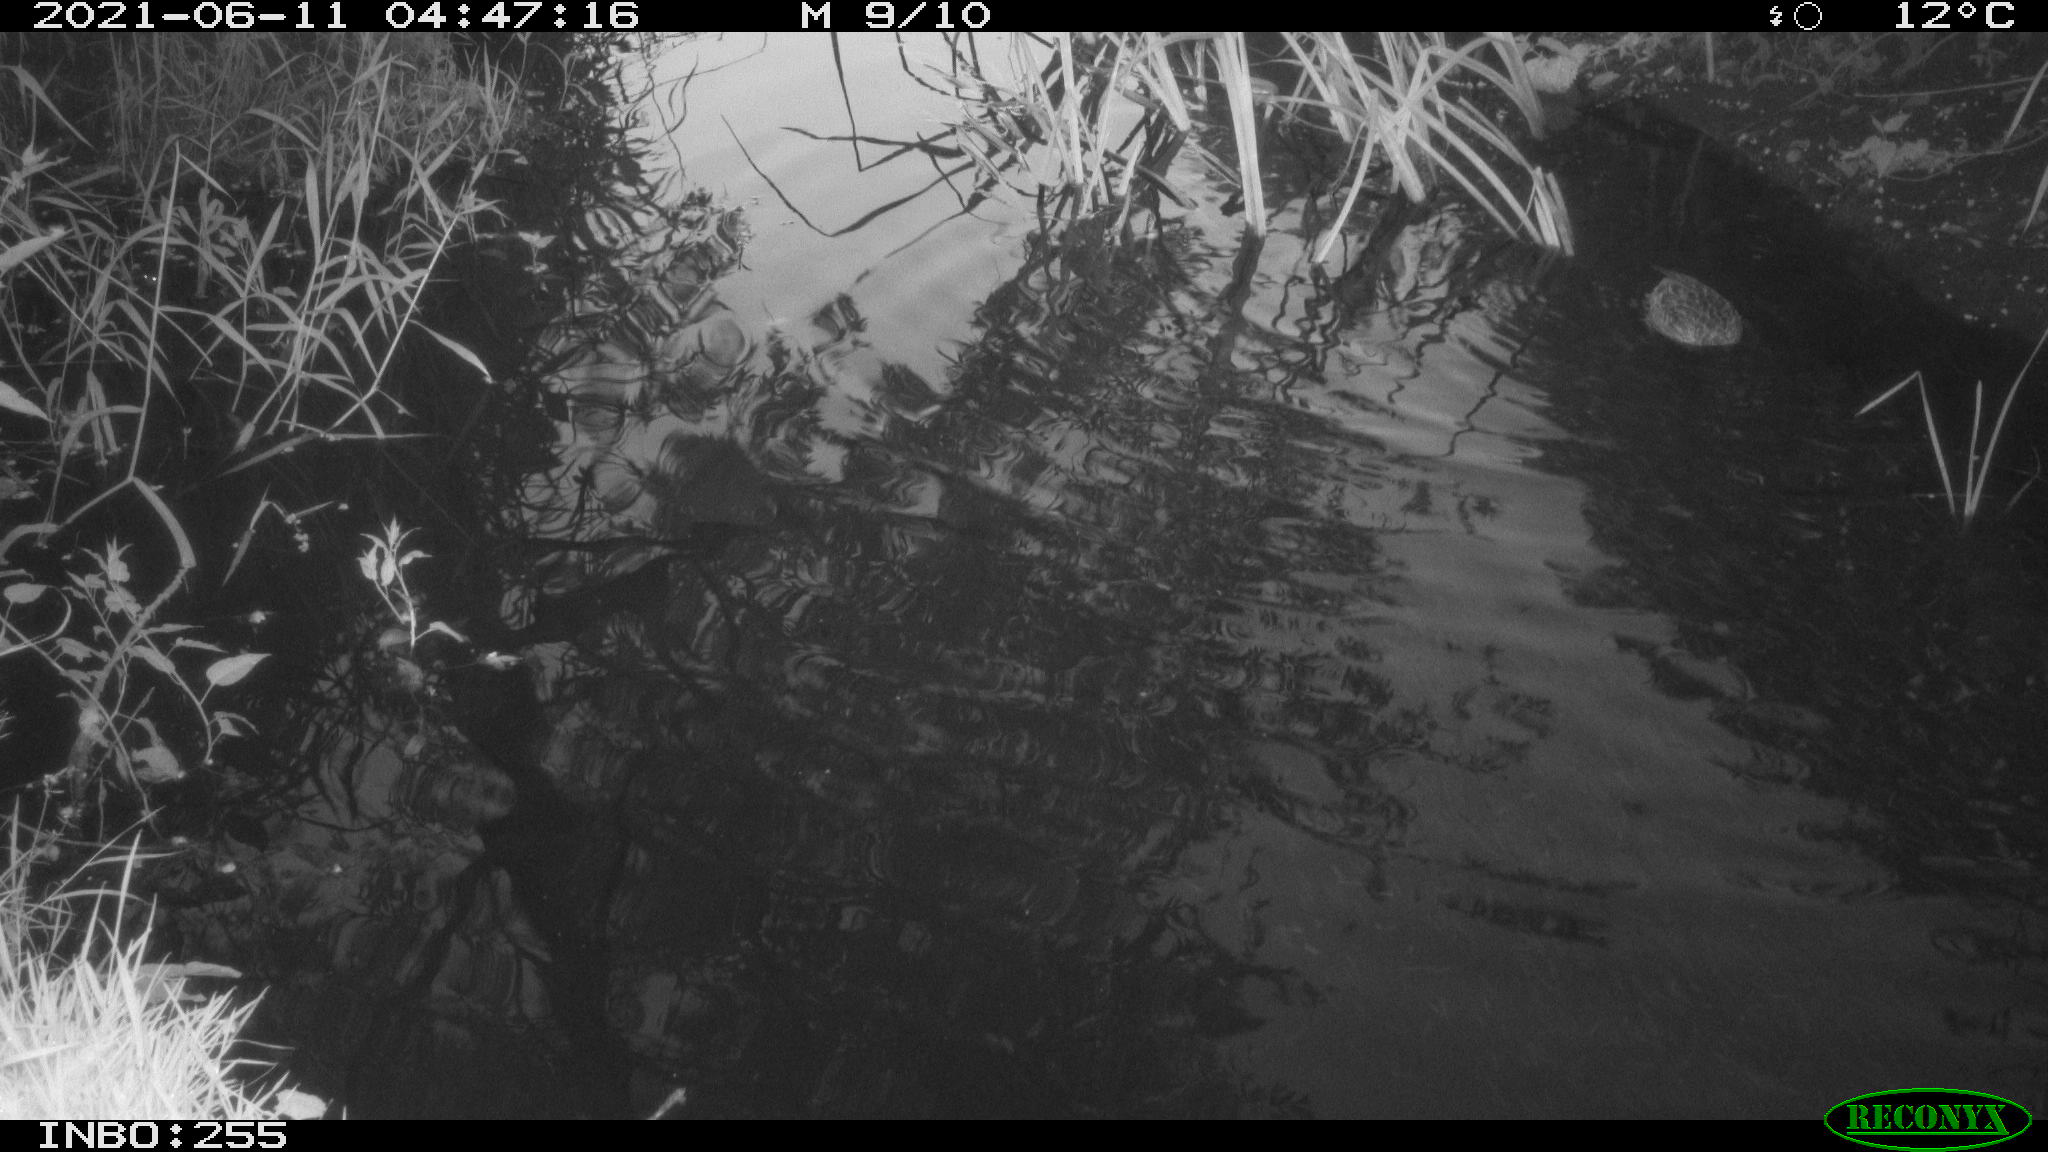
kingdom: Animalia
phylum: Chordata
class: Aves
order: Anseriformes
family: Anatidae
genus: Anas
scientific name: Anas platyrhynchos
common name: Mallard
